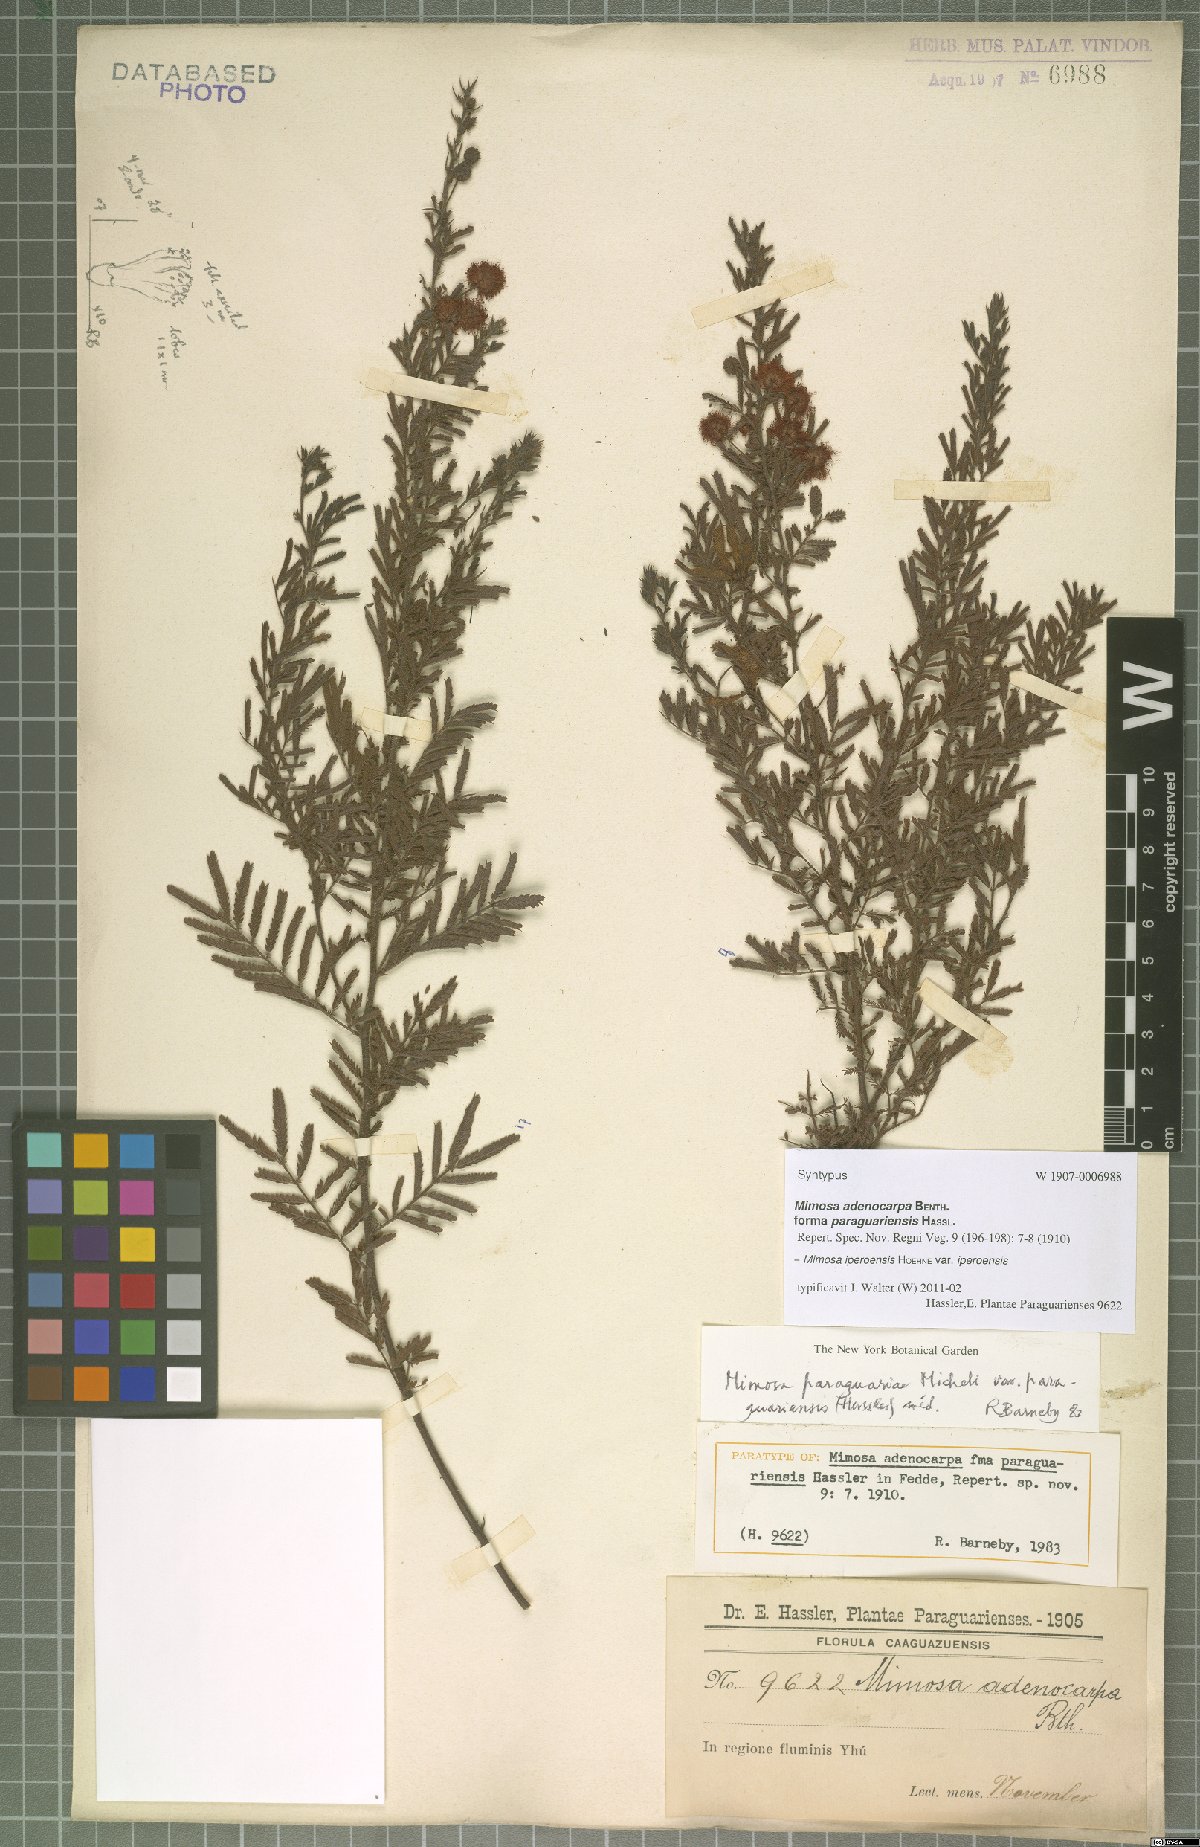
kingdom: Plantae
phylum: Tracheophyta
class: Magnoliopsida
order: Fabales
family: Fabaceae
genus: Mimosa
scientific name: Mimosa iperoensis
